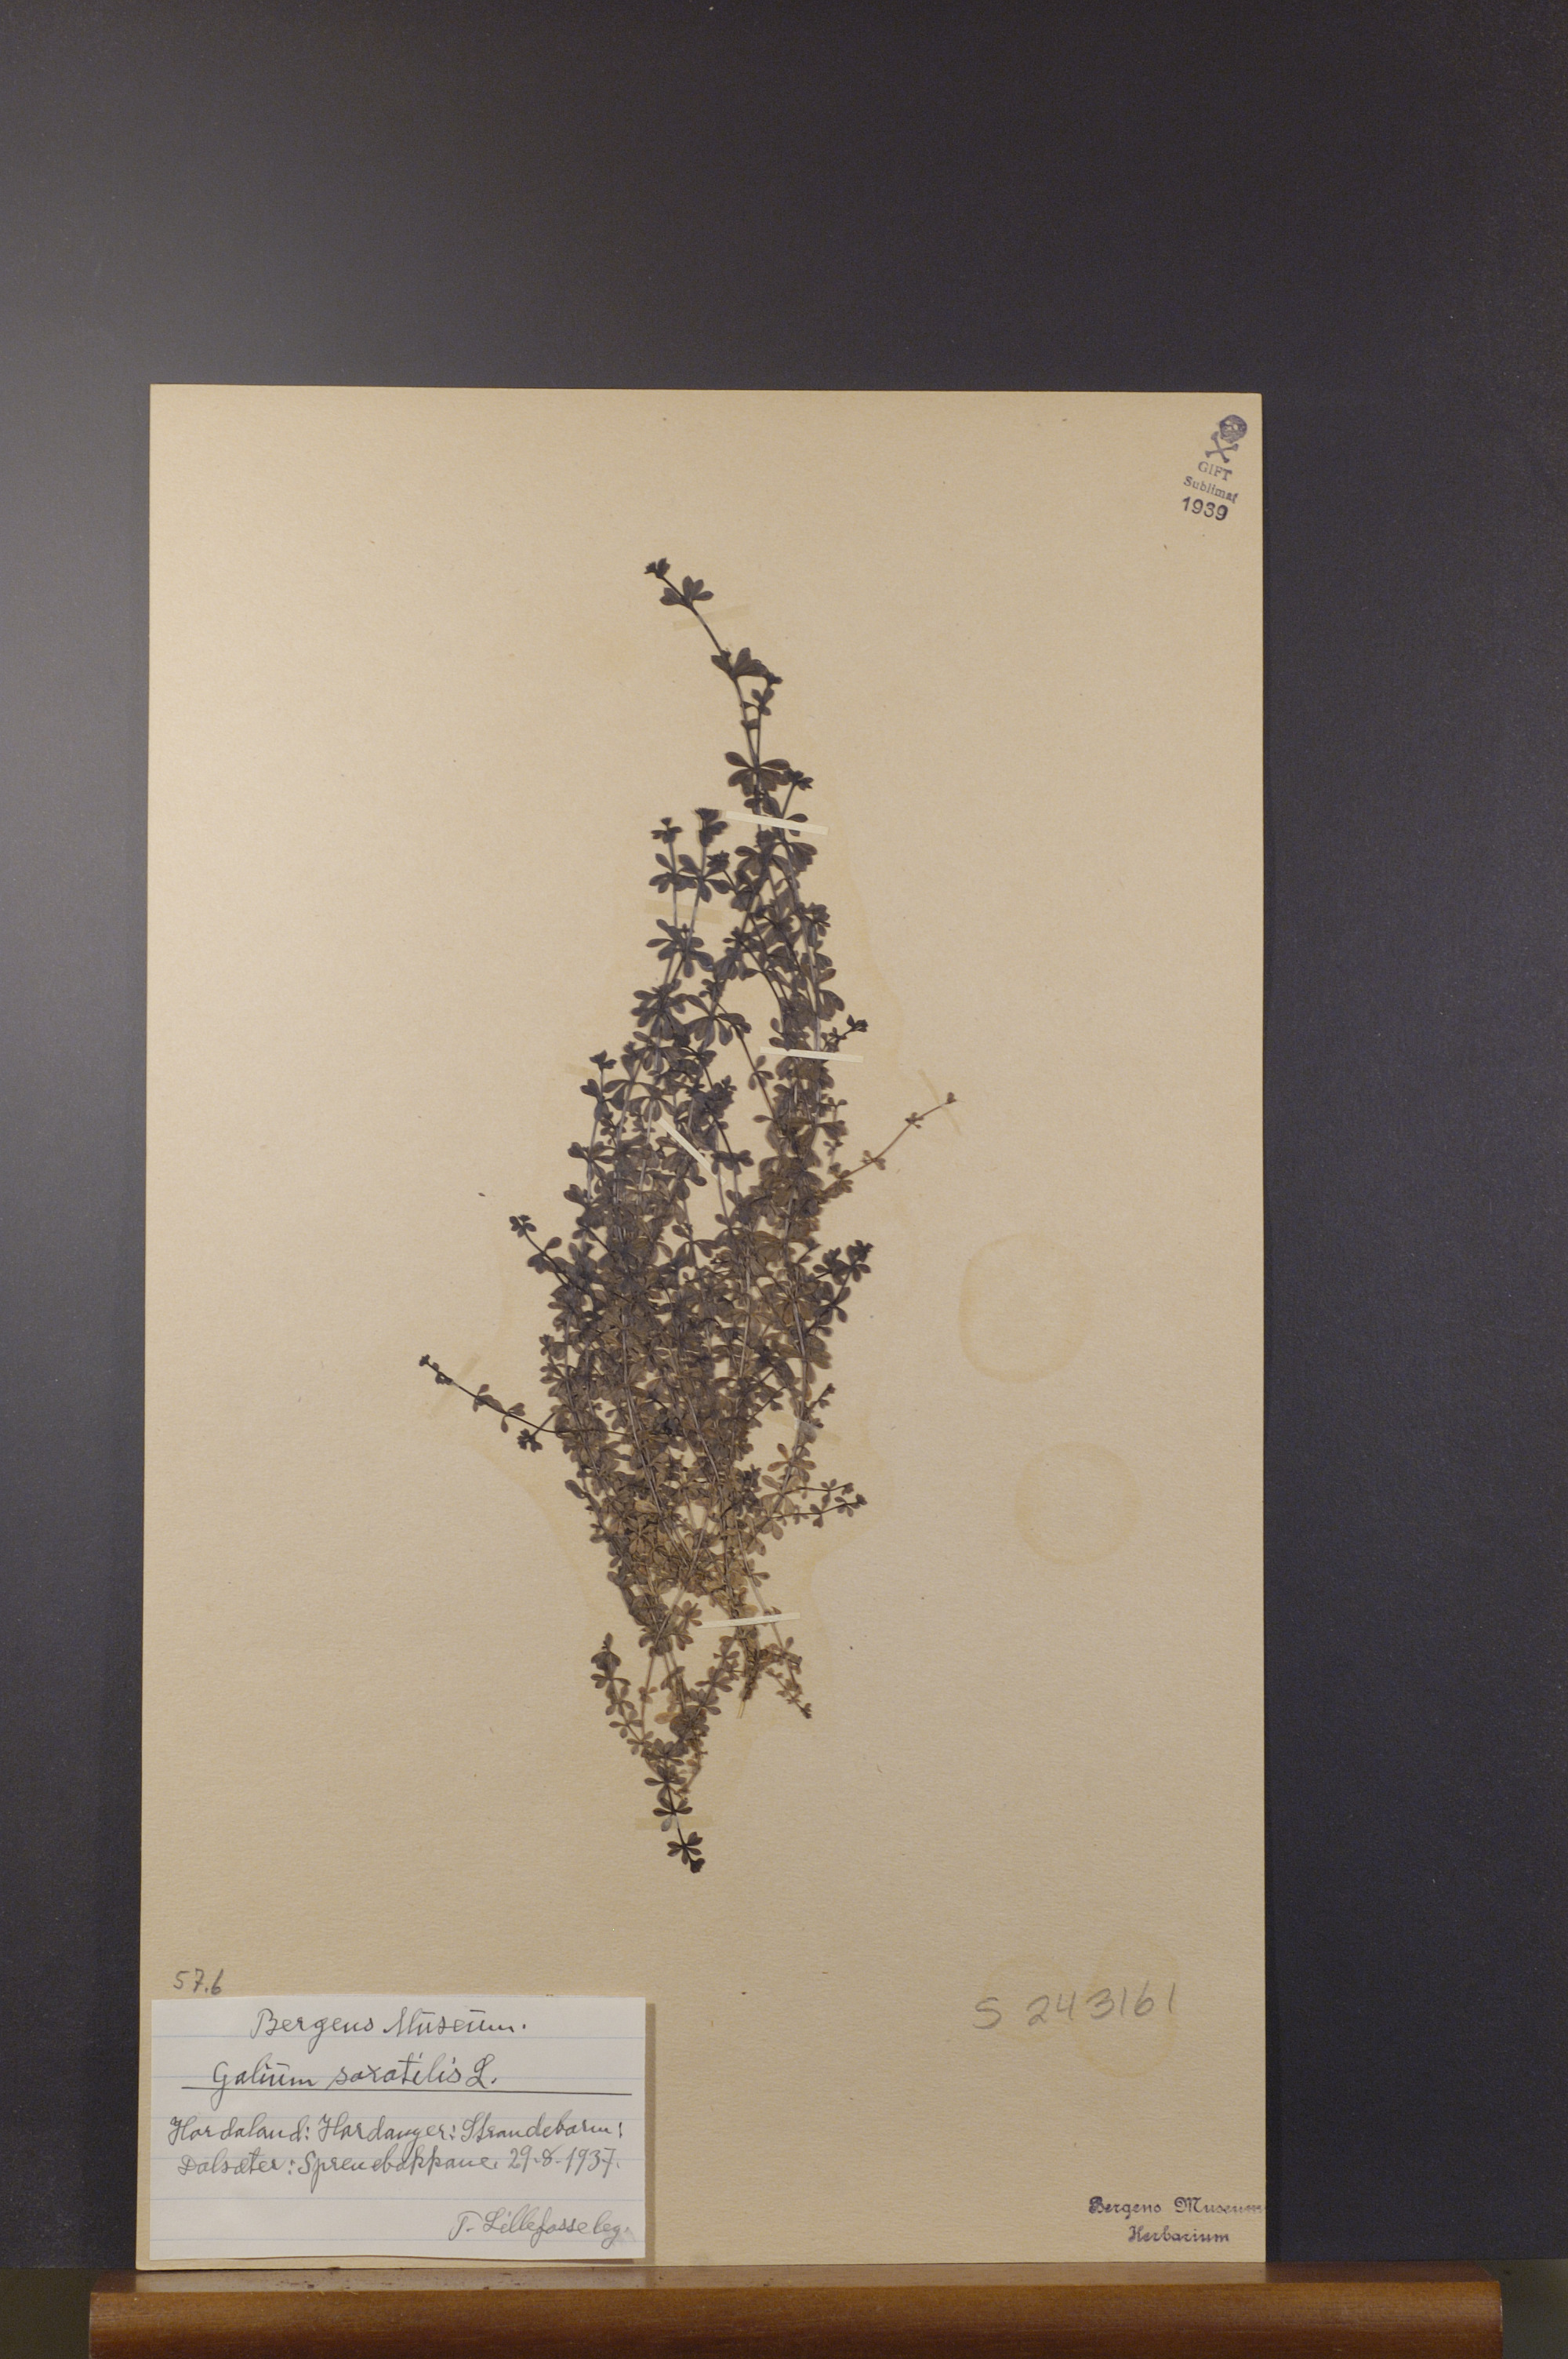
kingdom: Plantae
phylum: Tracheophyta
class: Magnoliopsida
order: Gentianales
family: Rubiaceae
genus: Galium
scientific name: Galium saxatile
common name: Heath bedstraw
